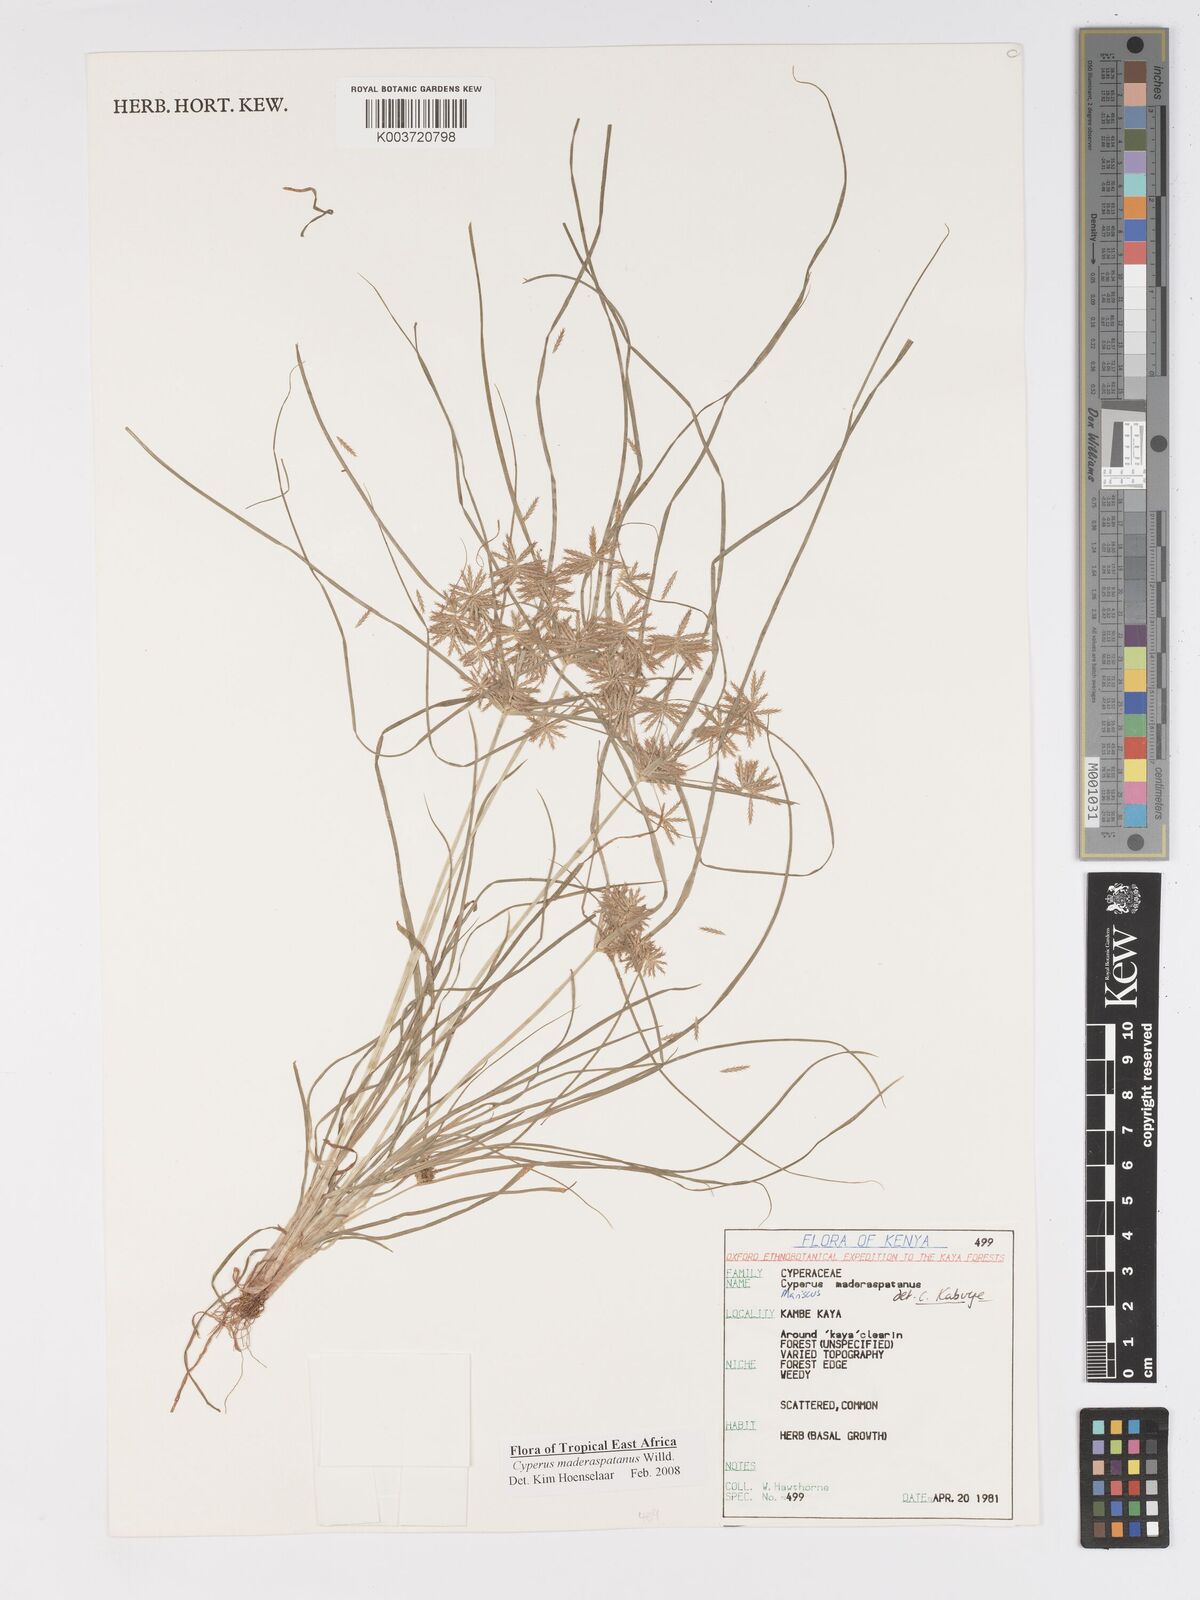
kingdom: Plantae
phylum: Tracheophyta
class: Liliopsida
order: Poales
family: Cyperaceae
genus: Cyperus
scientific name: Cyperus maderaspatanus
